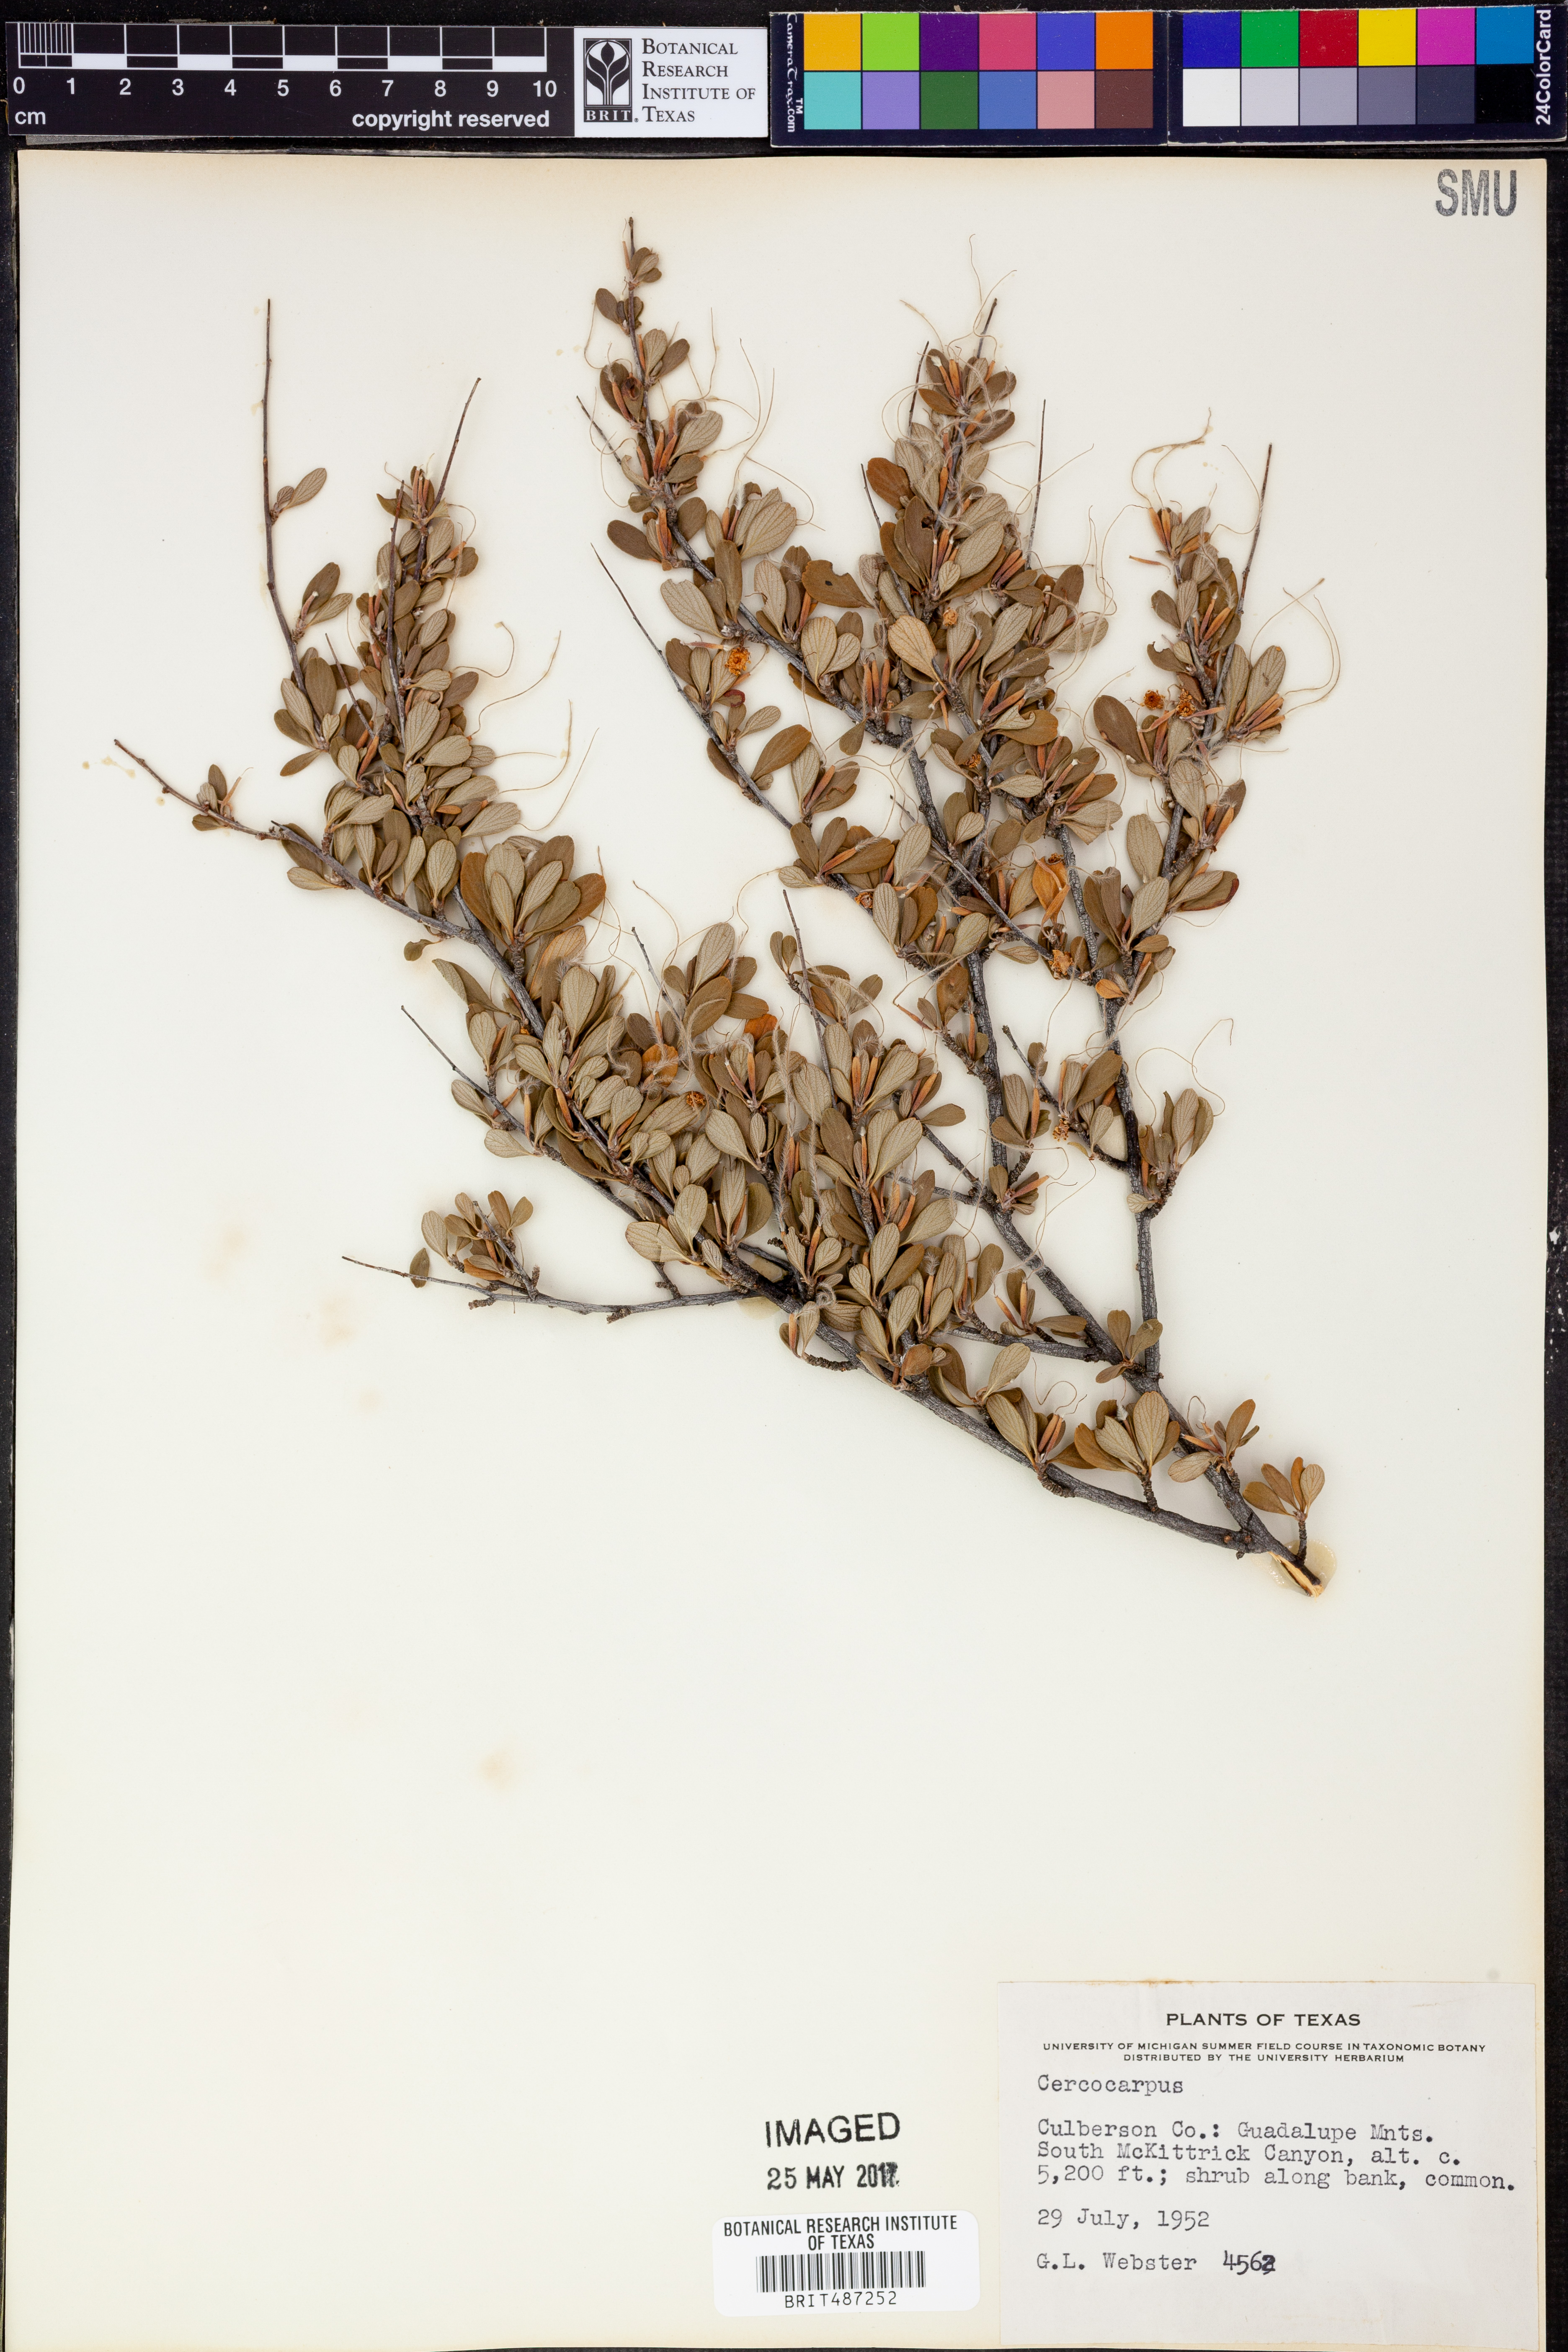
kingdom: Plantae
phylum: Tracheophyta
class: Magnoliopsida
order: Rosales
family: Rosaceae
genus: Cercocarpus
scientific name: Cercocarpus
